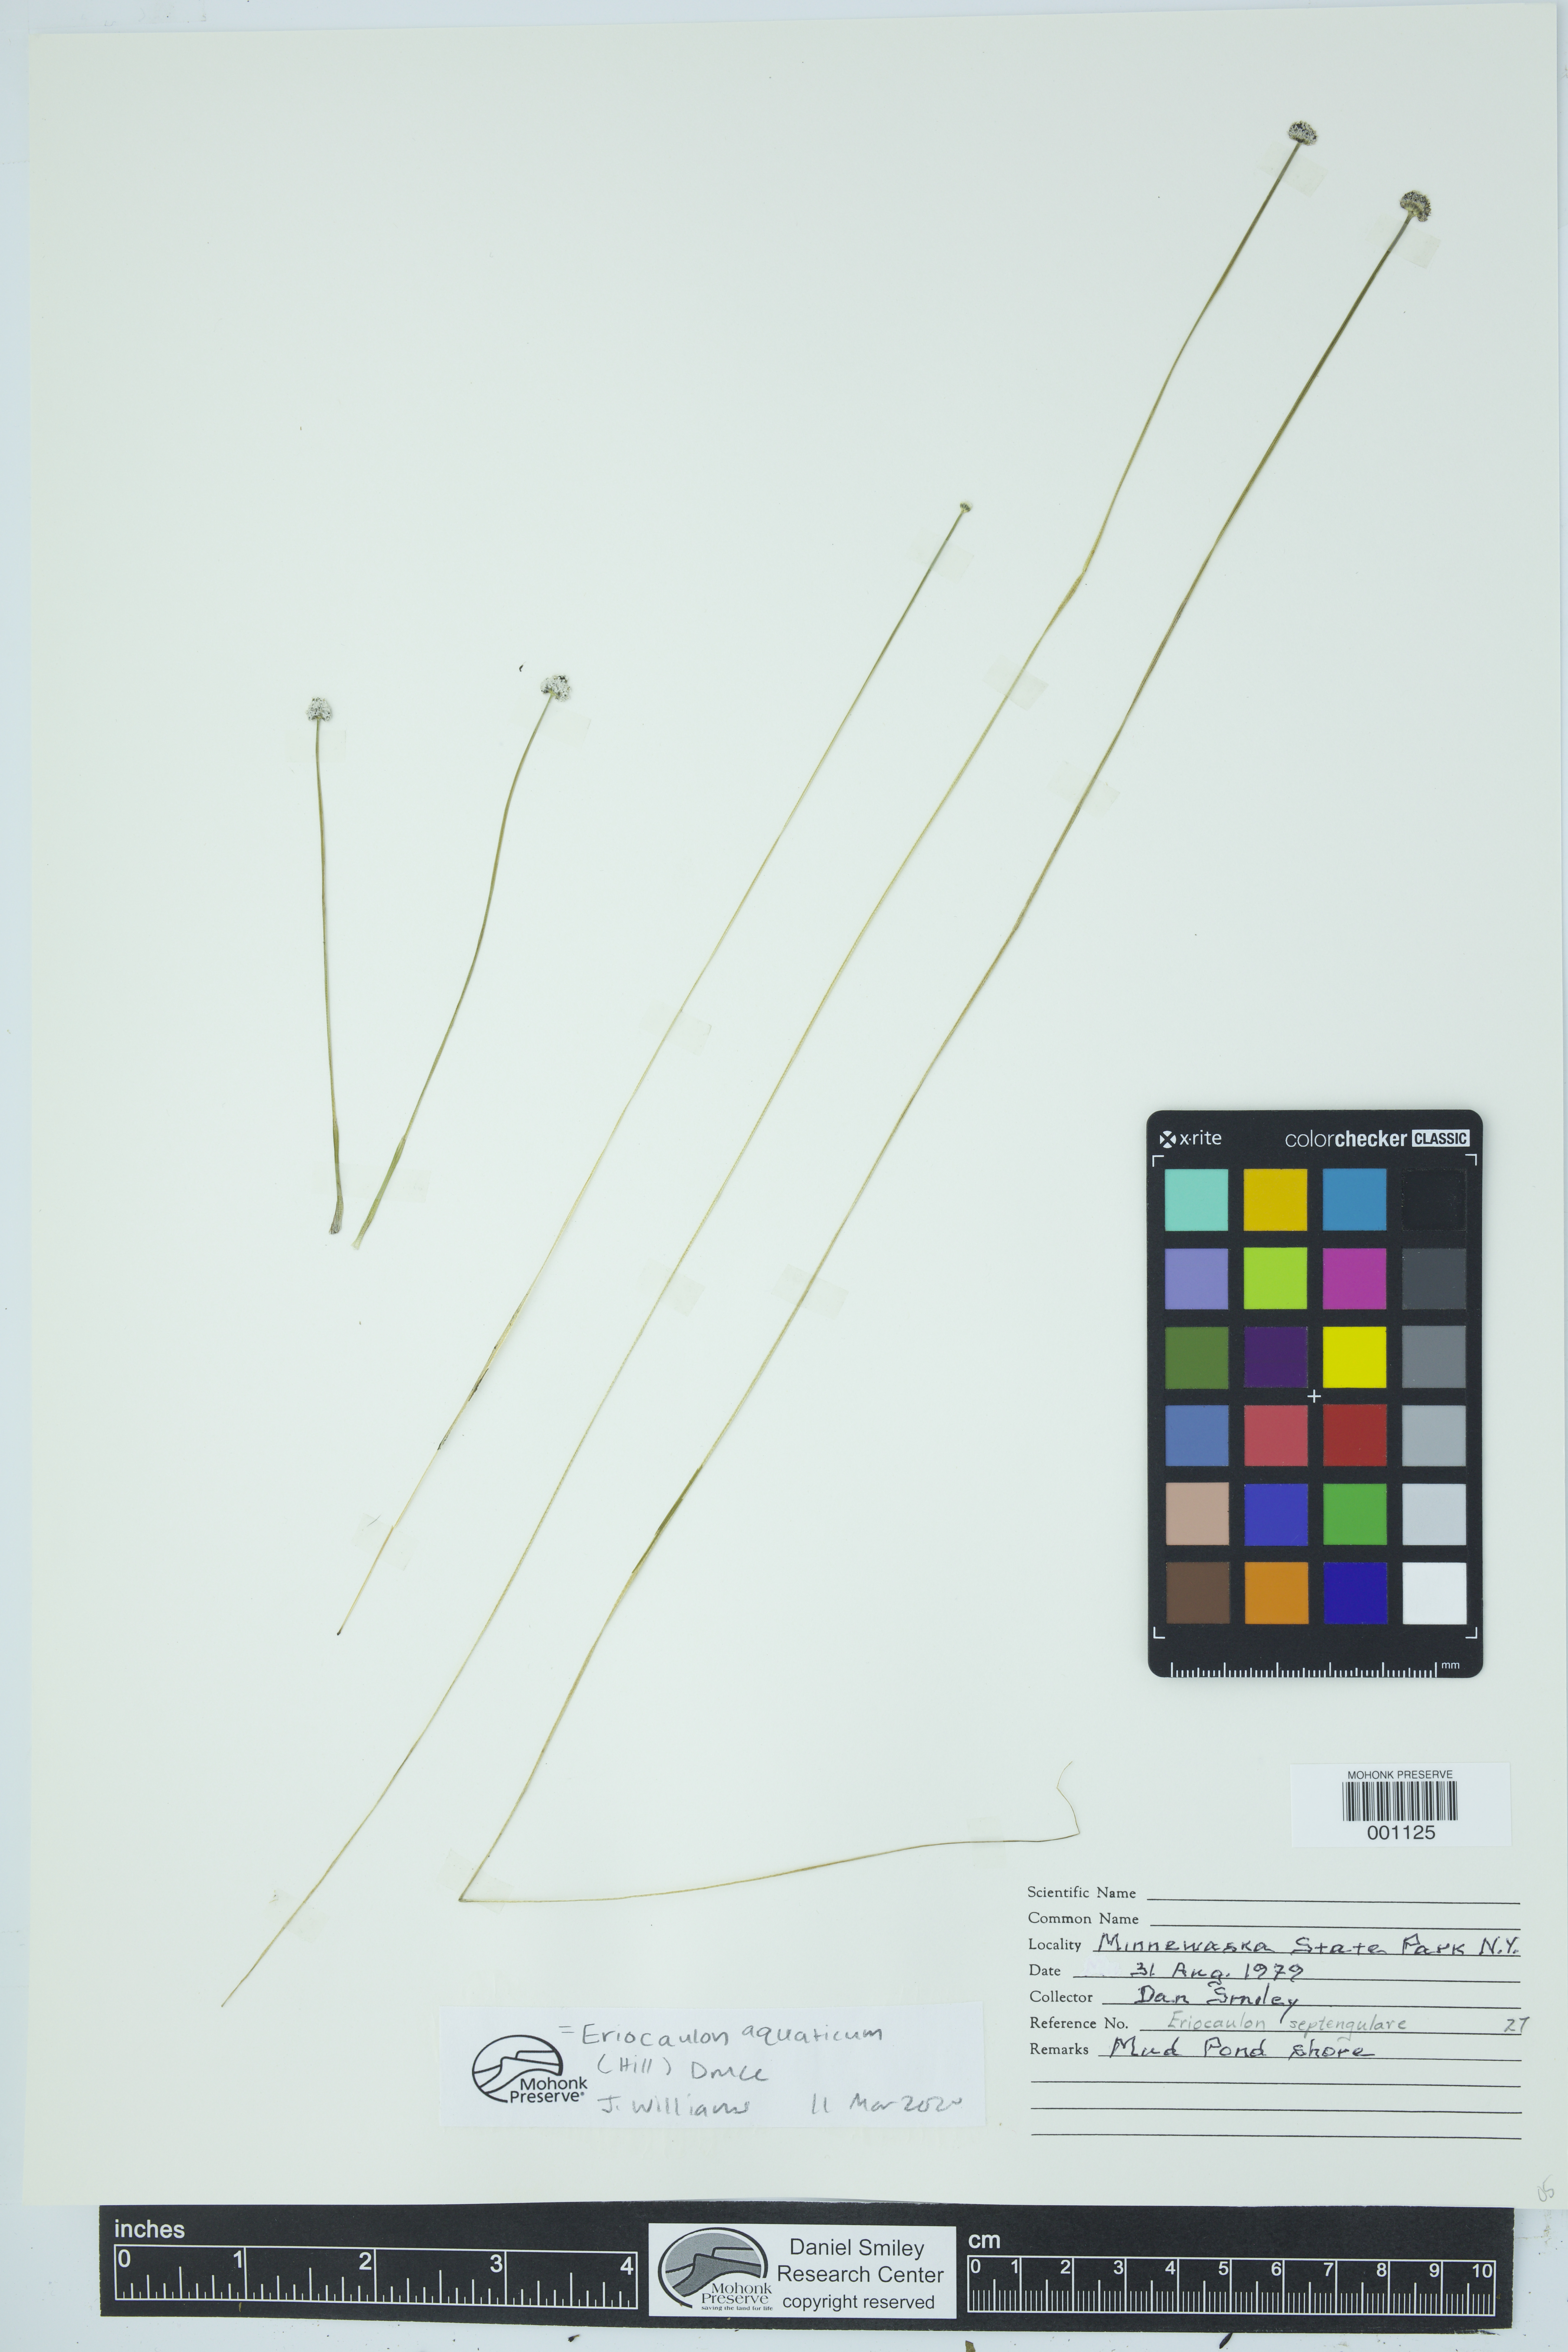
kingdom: Plantae
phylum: Tracheophyta
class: Liliopsida
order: Poales
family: Eriocaulaceae
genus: Eriocaulon
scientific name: Eriocaulon aquaticum
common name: Pipewort
